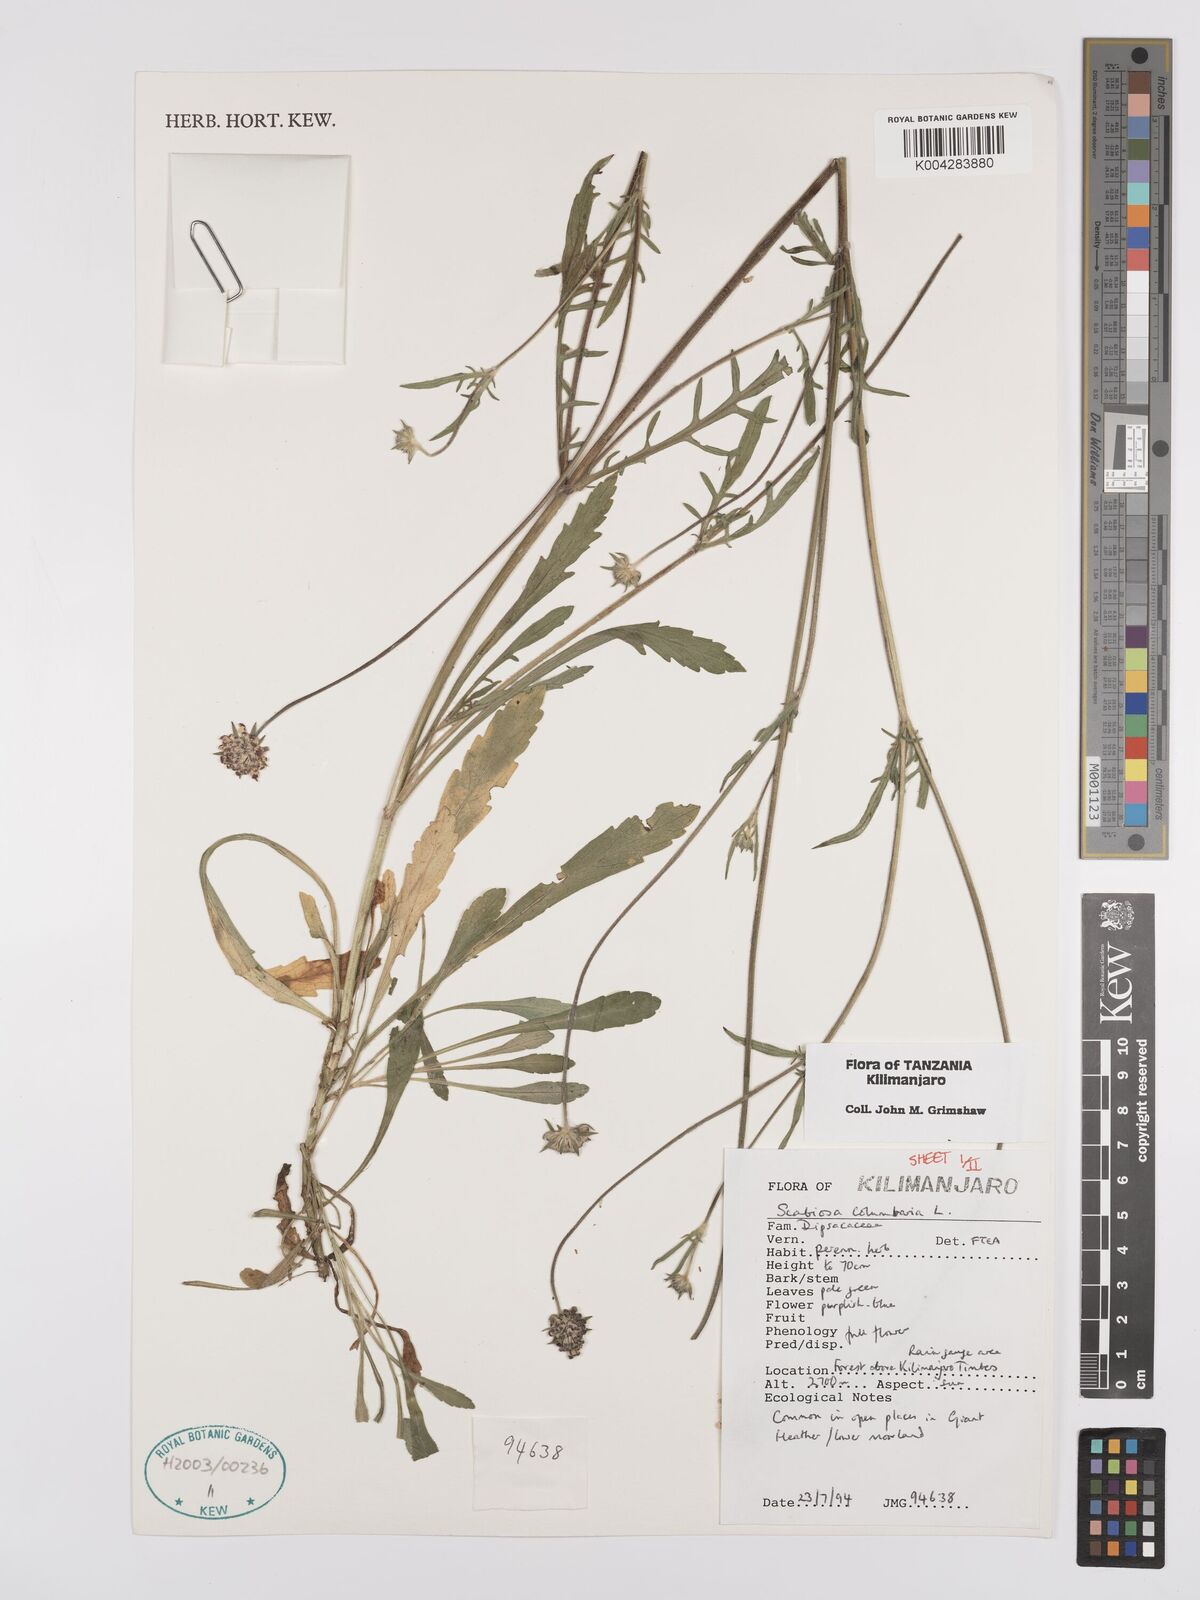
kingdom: Plantae
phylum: Tracheophyta
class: Magnoliopsida
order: Dipsacales
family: Caprifoliaceae
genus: Scabiosa
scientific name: Scabiosa austroafricana
